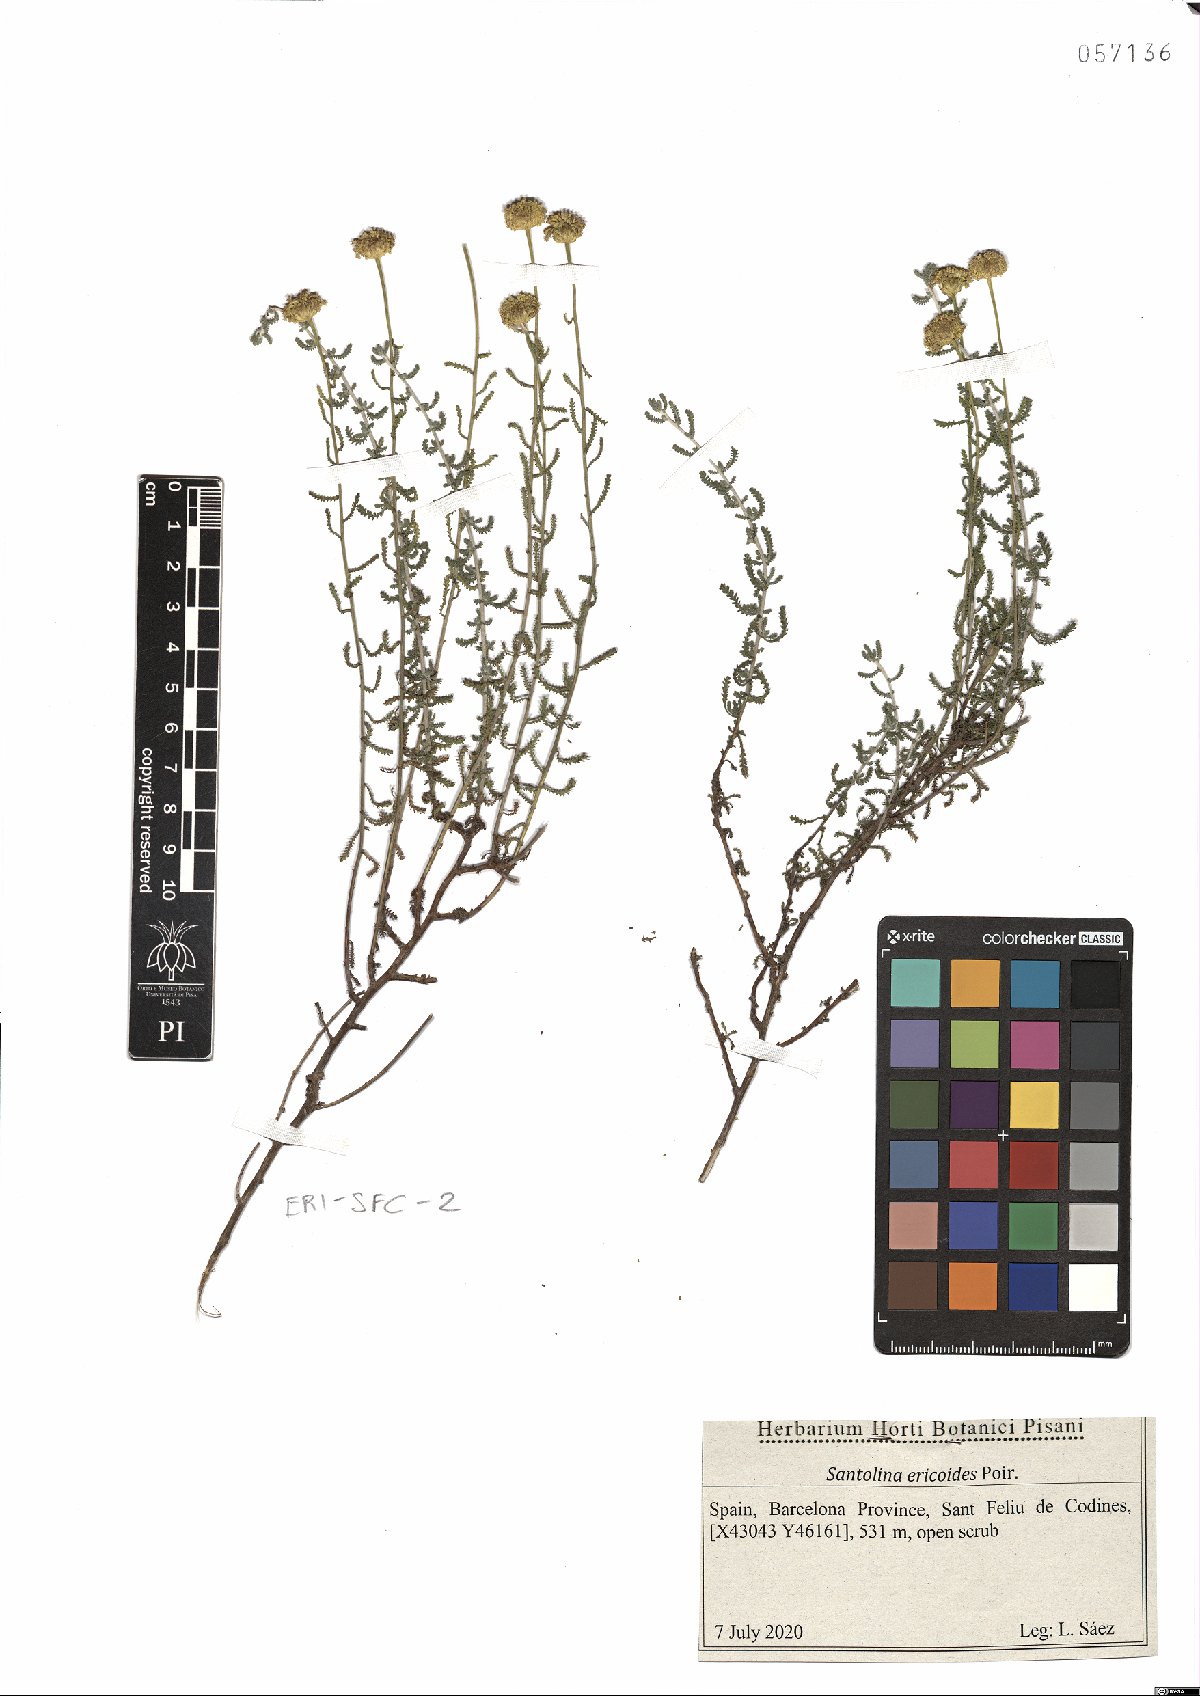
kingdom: Plantae
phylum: Tracheophyta
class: Magnoliopsida
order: Asterales
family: Asteraceae
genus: Santolina
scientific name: Santolina ericoides
